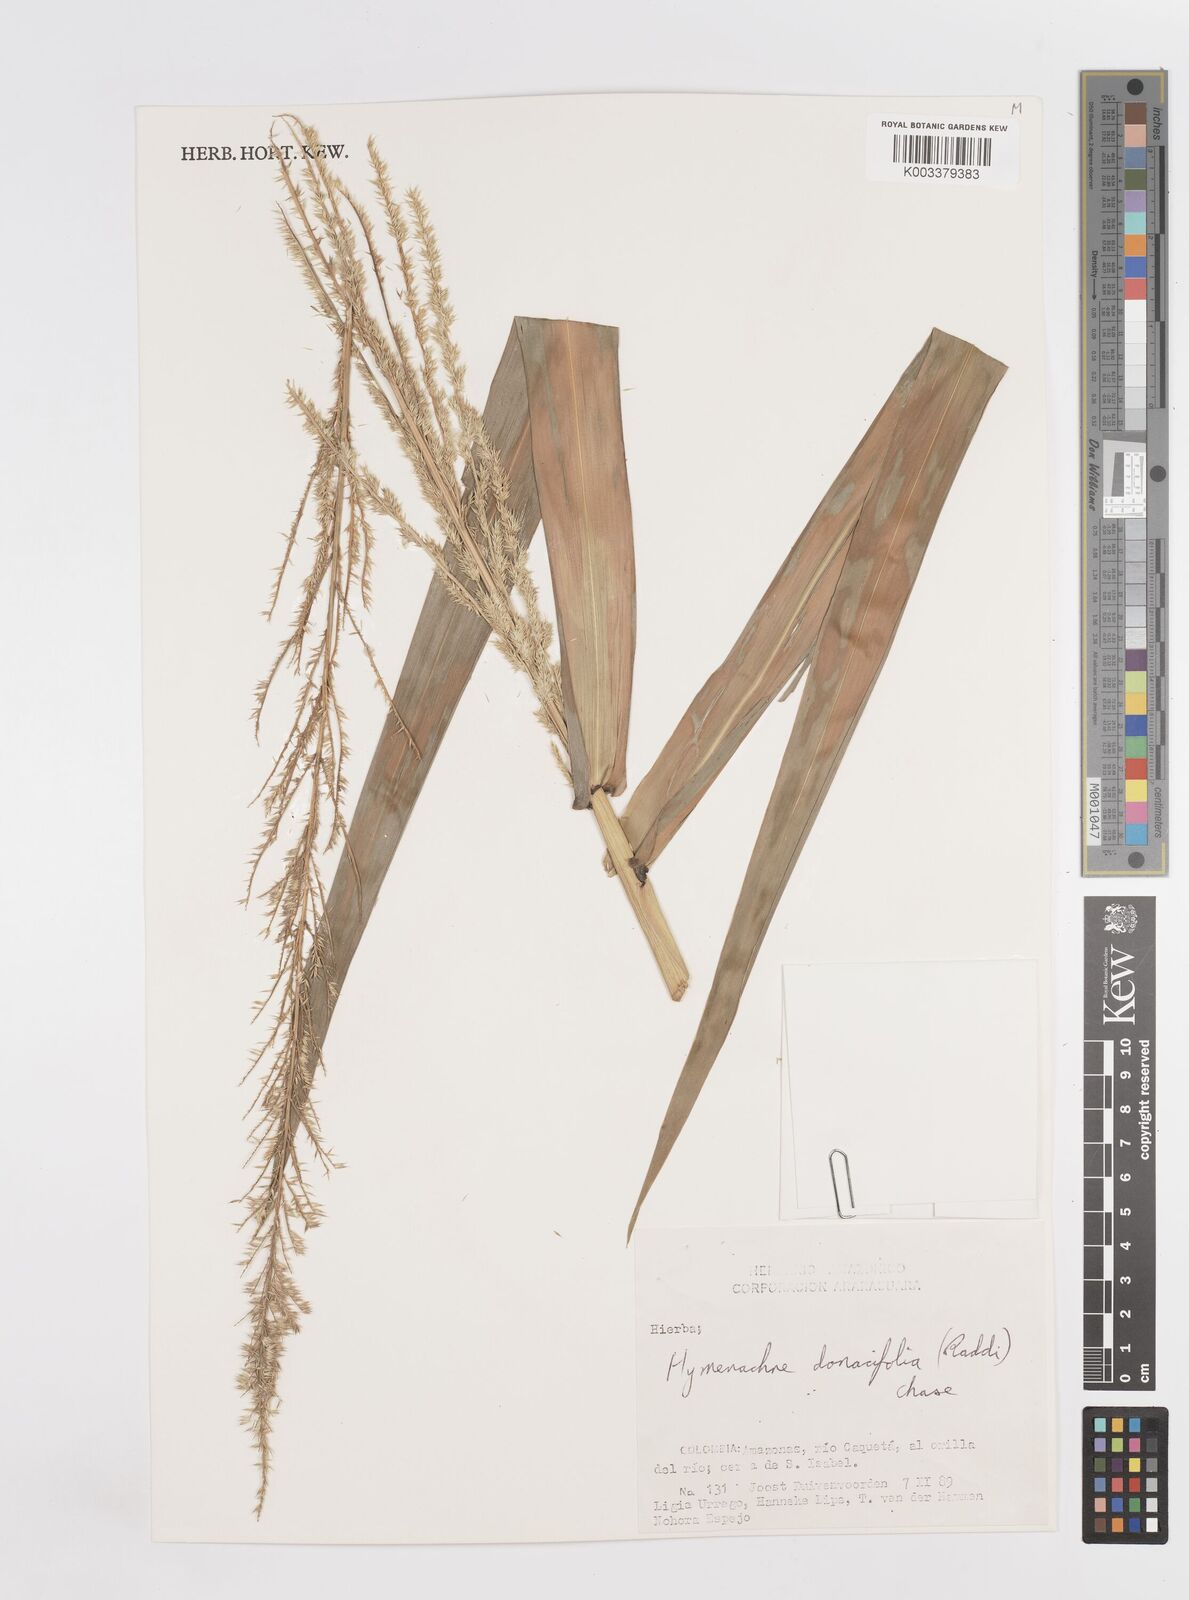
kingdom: Plantae
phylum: Tracheophyta
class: Liliopsida
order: Poales
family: Poaceae
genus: Hymenachne
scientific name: Hymenachne donacifolia
